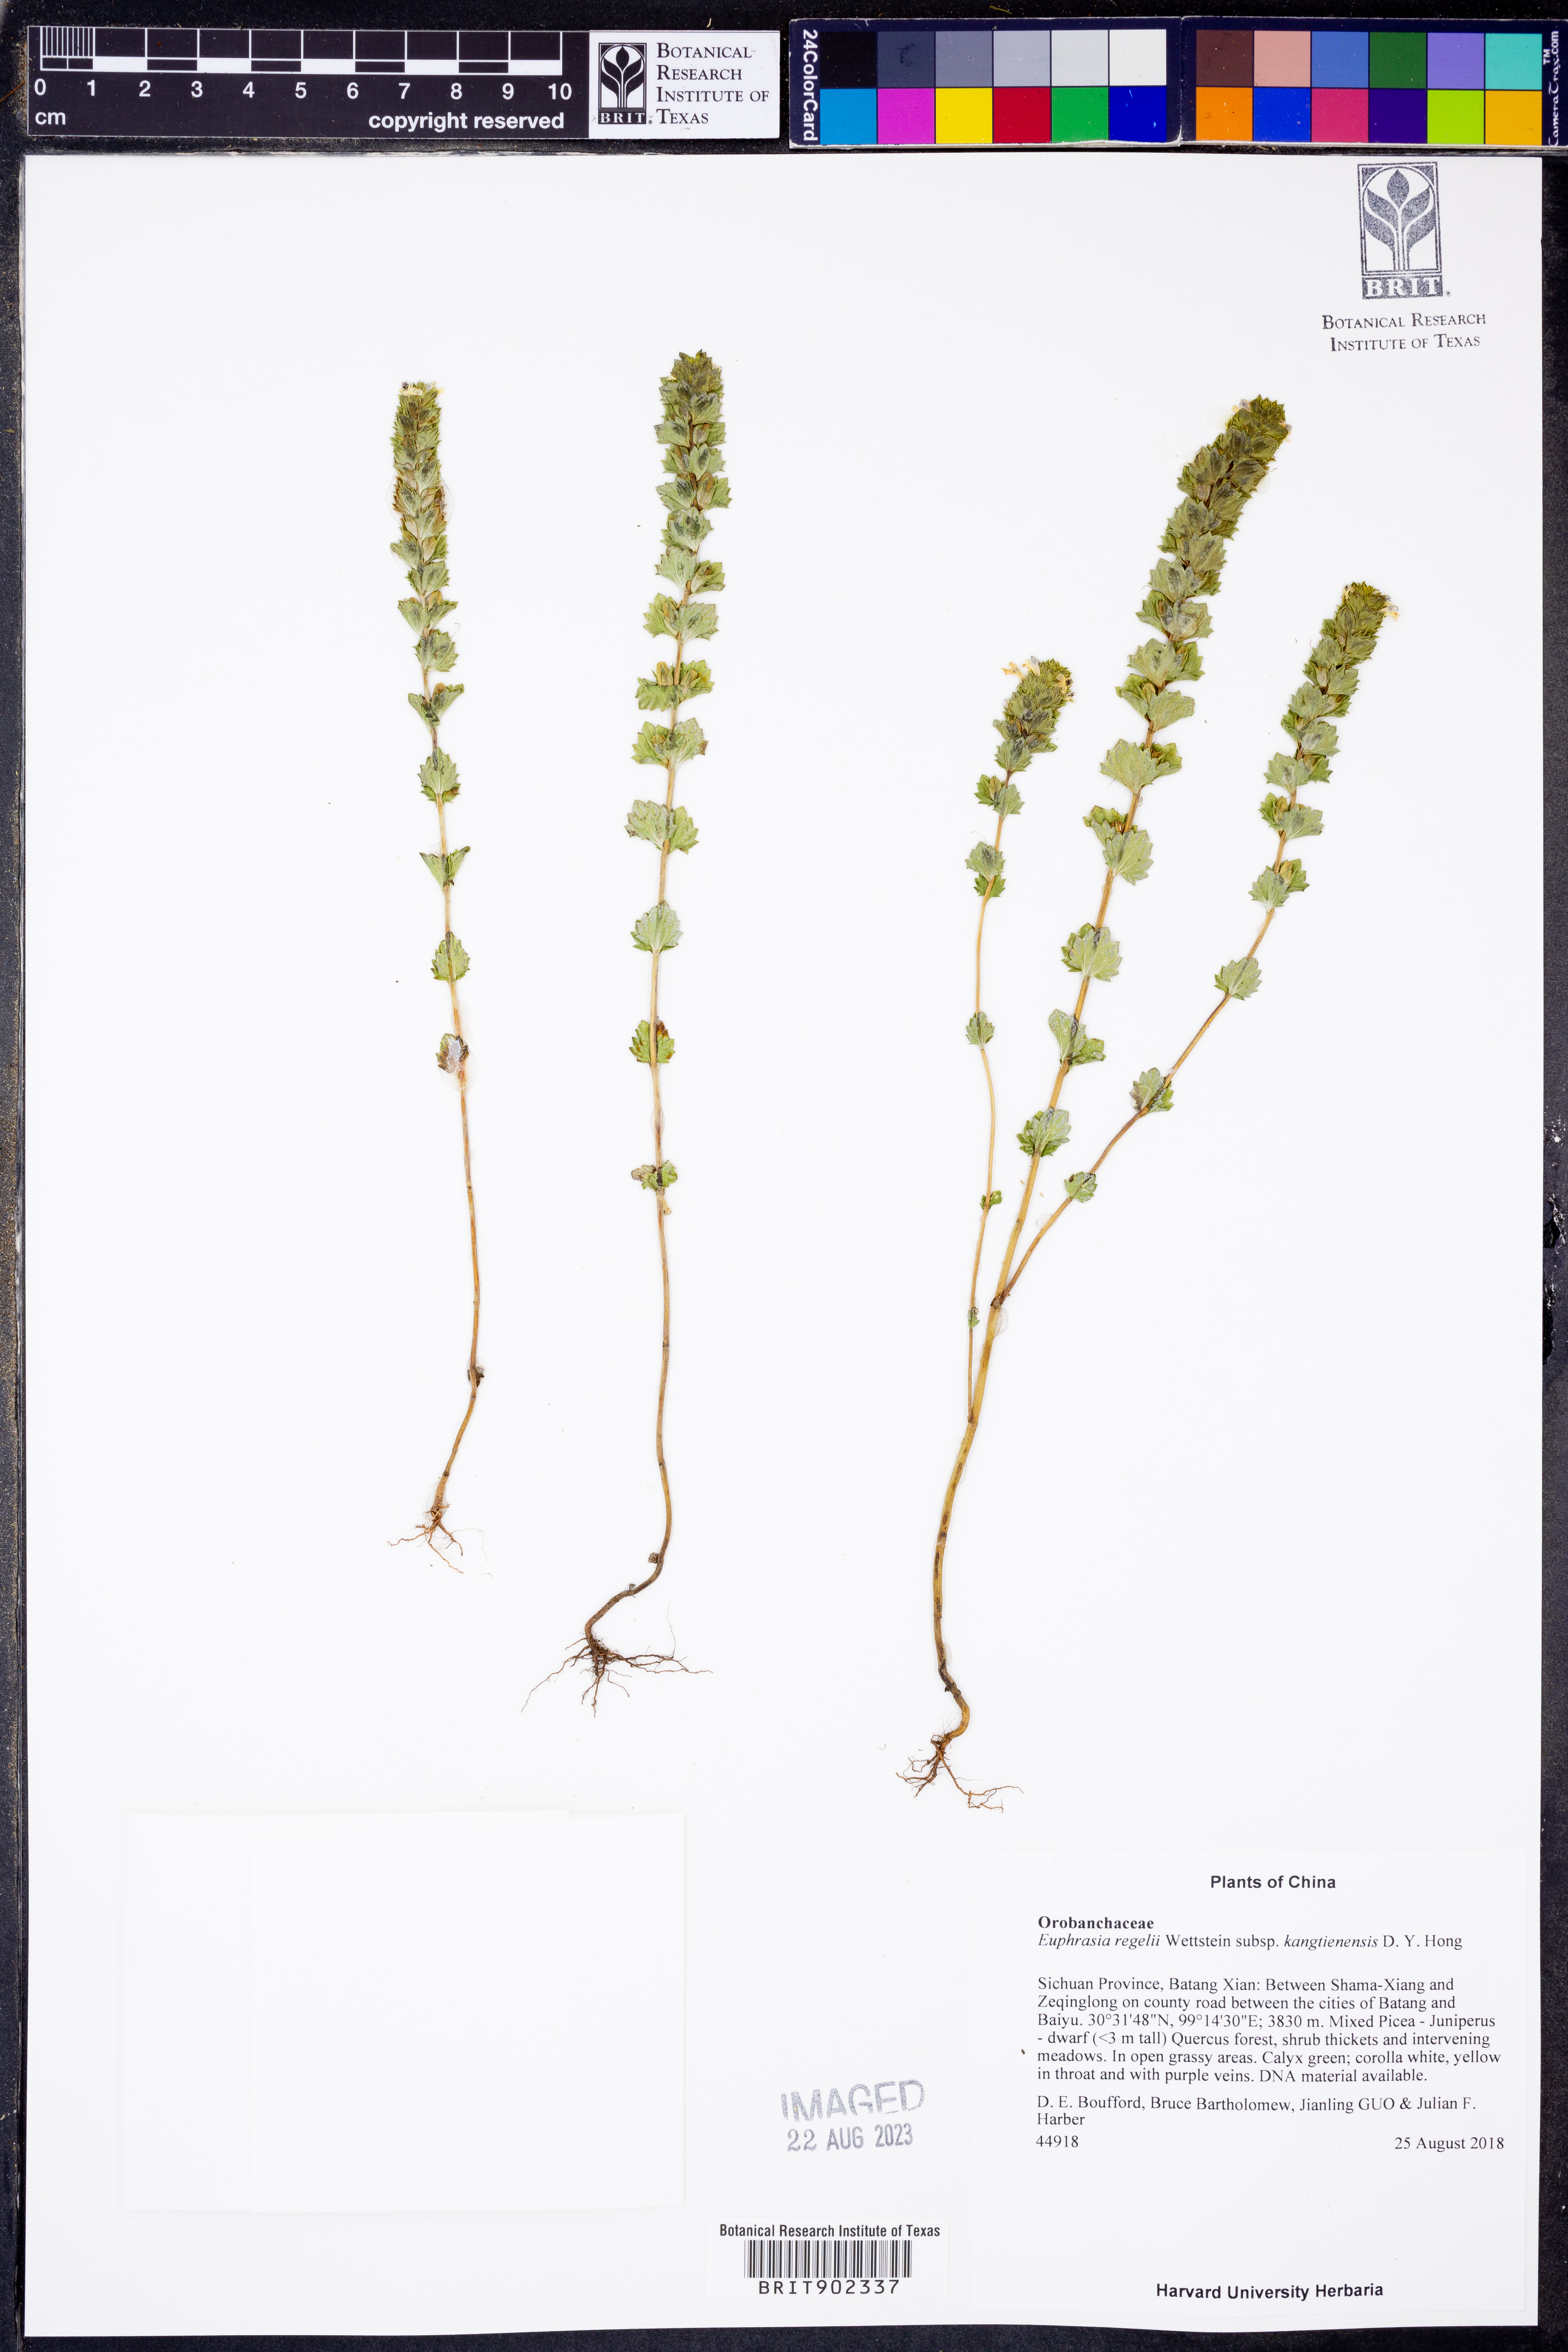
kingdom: Plantae
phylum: Tracheophyta
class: Magnoliopsida
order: Lamiales
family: Orobanchaceae
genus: Euphrasia
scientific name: Euphrasia regelii
